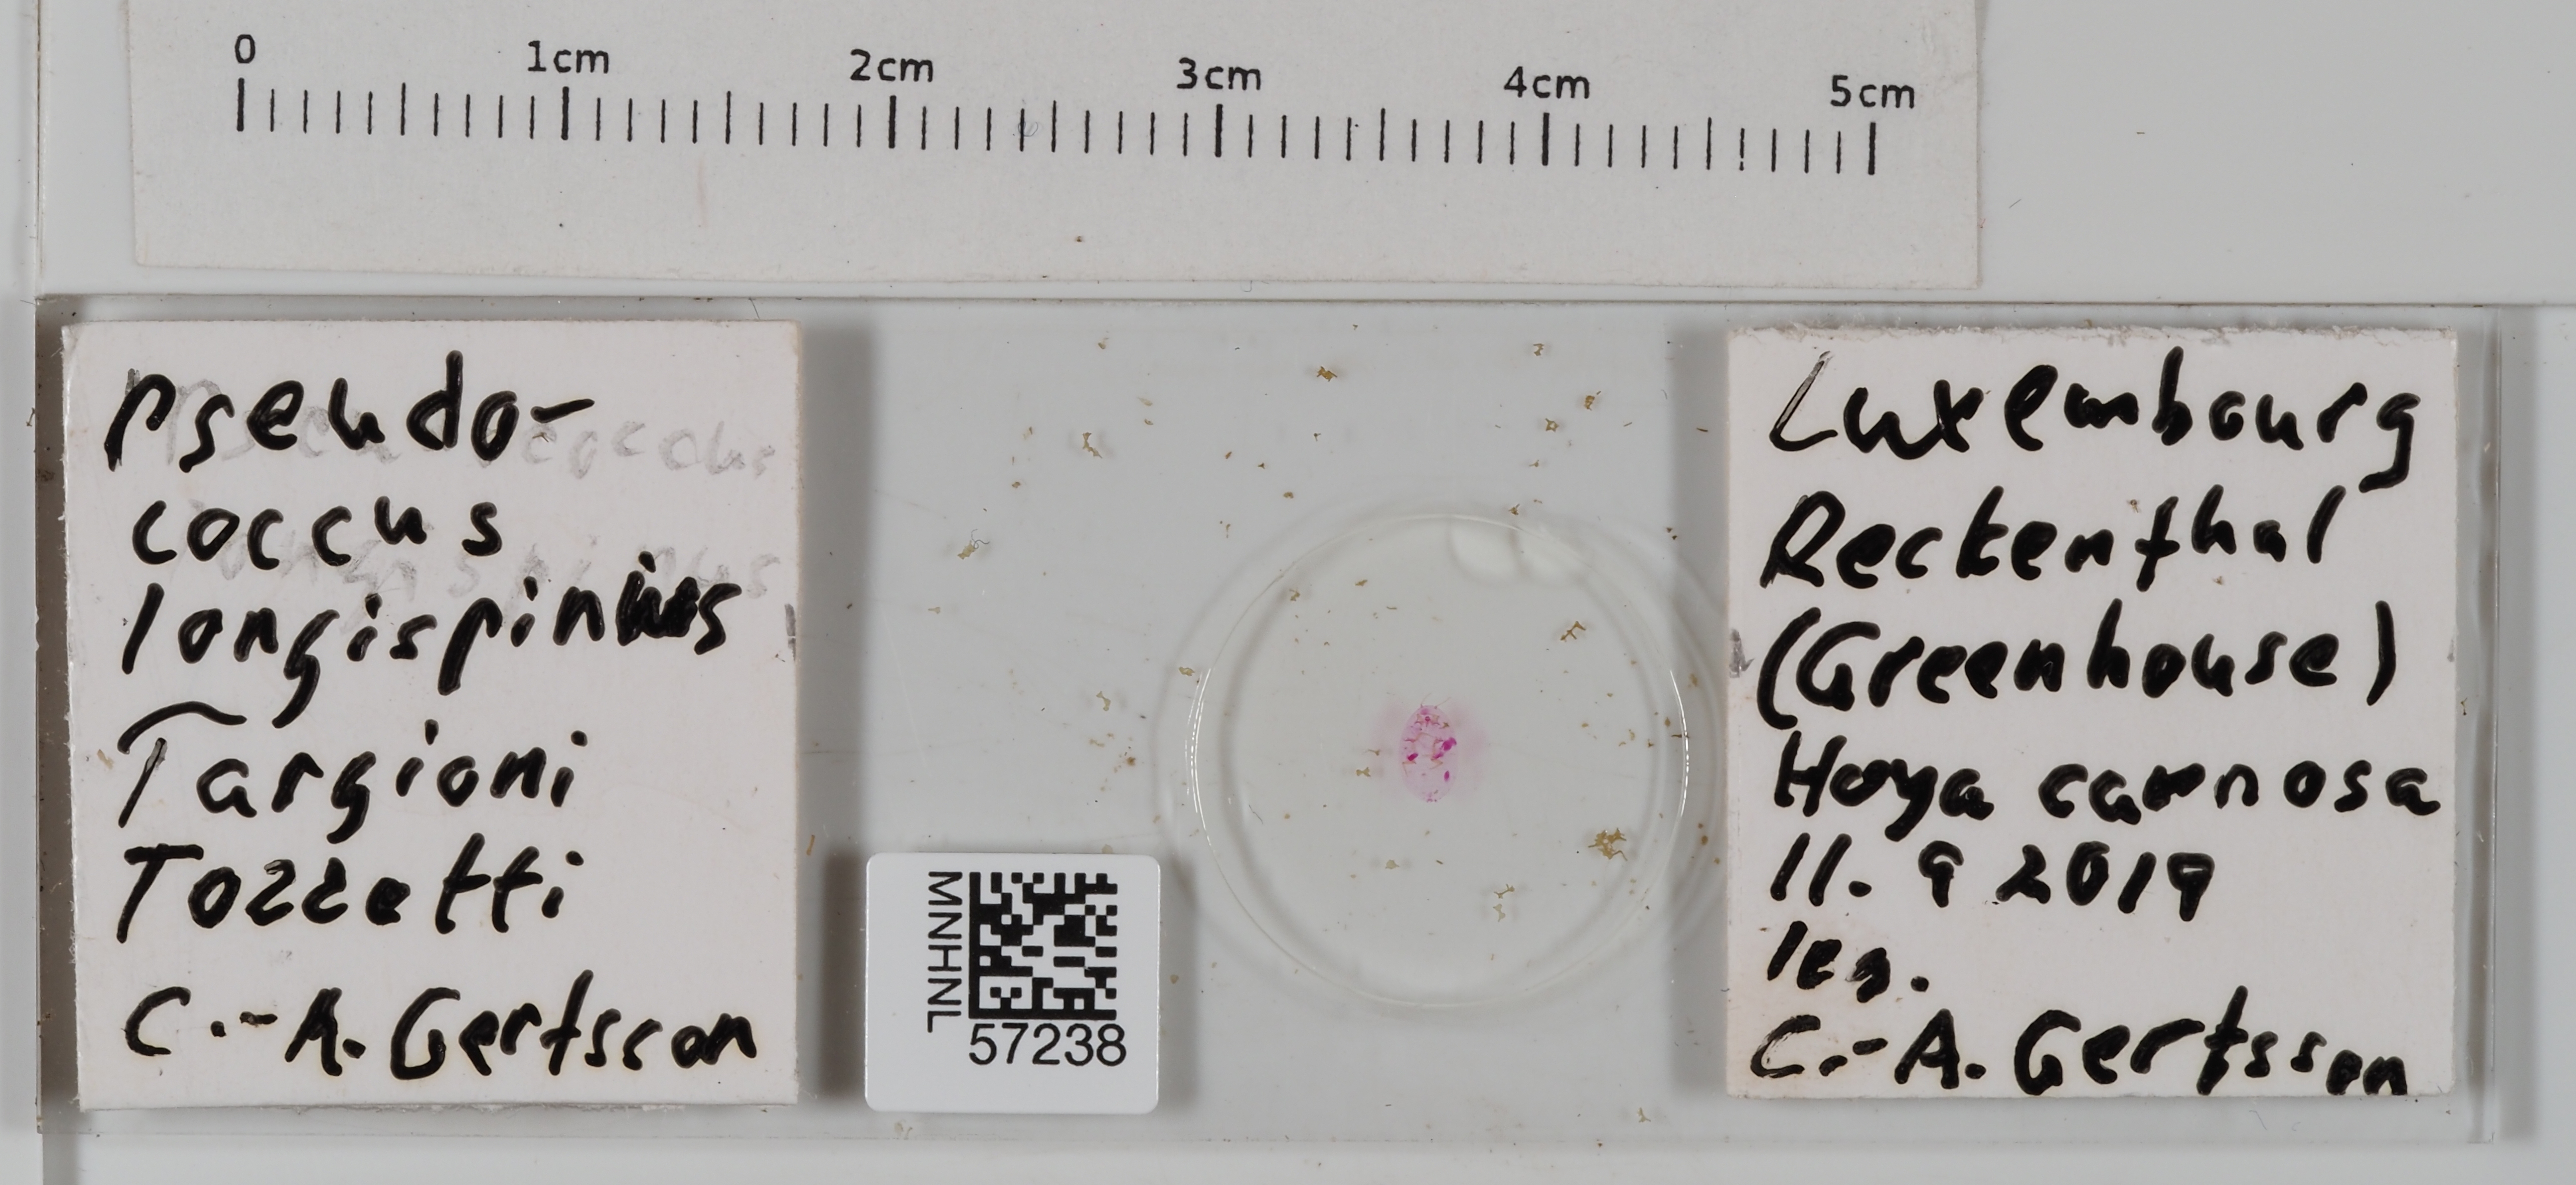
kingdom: Animalia
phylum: Arthropoda
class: Insecta
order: Hemiptera
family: Pseudococcidae
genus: Pseudococcus
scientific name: Pseudococcus longispinus
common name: Long-tailed mealybug
